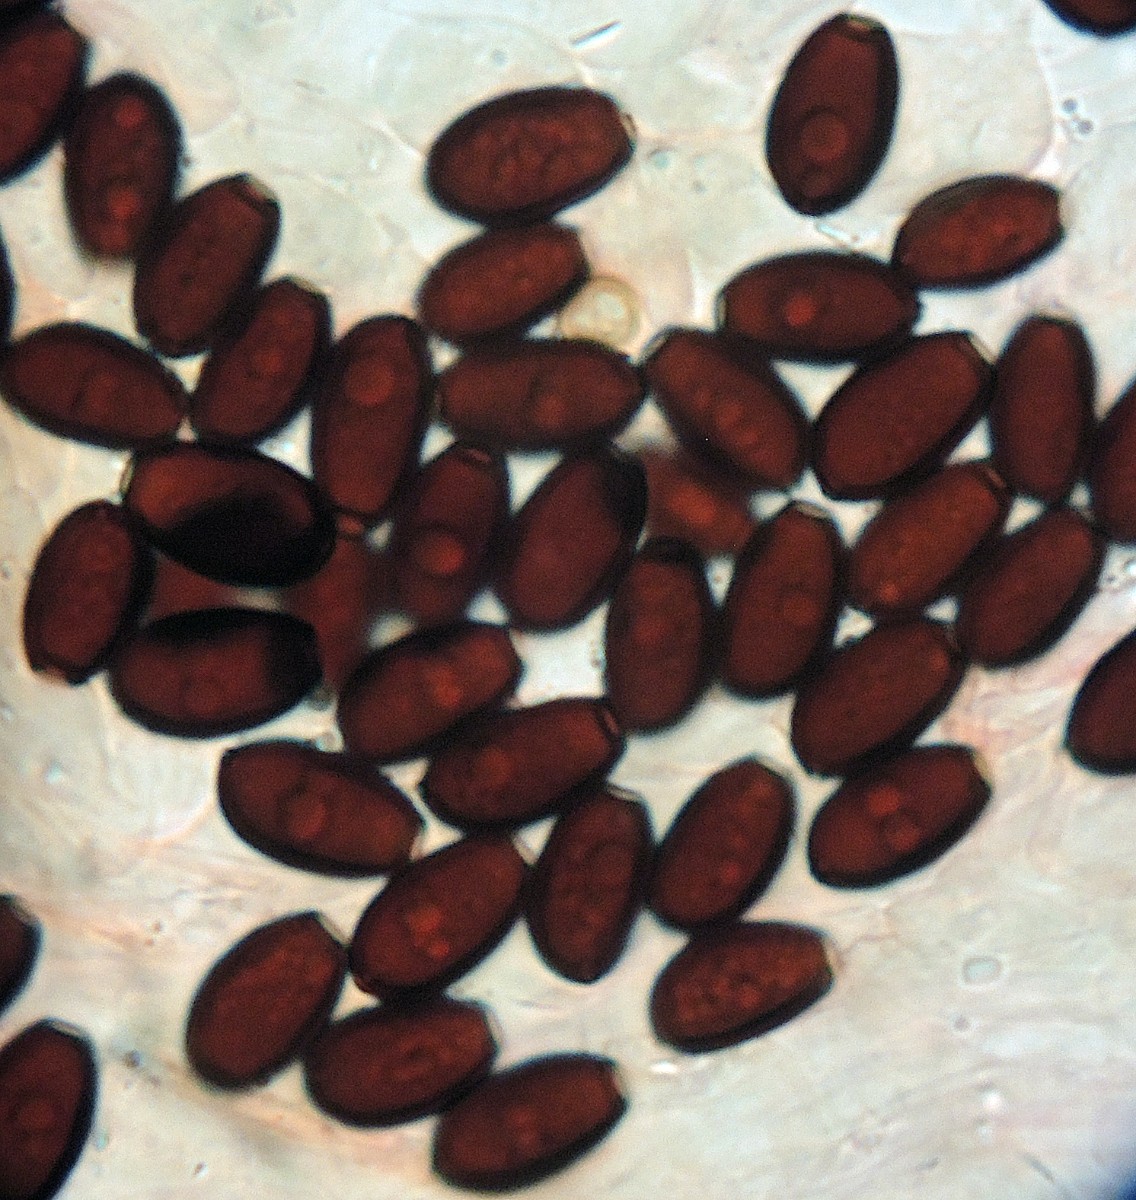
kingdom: Fungi
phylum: Basidiomycota
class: Agaricomycetes
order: Agaricales
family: Psathyrellaceae
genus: Coprinopsis
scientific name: Coprinopsis cinerea
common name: mødding-blækhat
